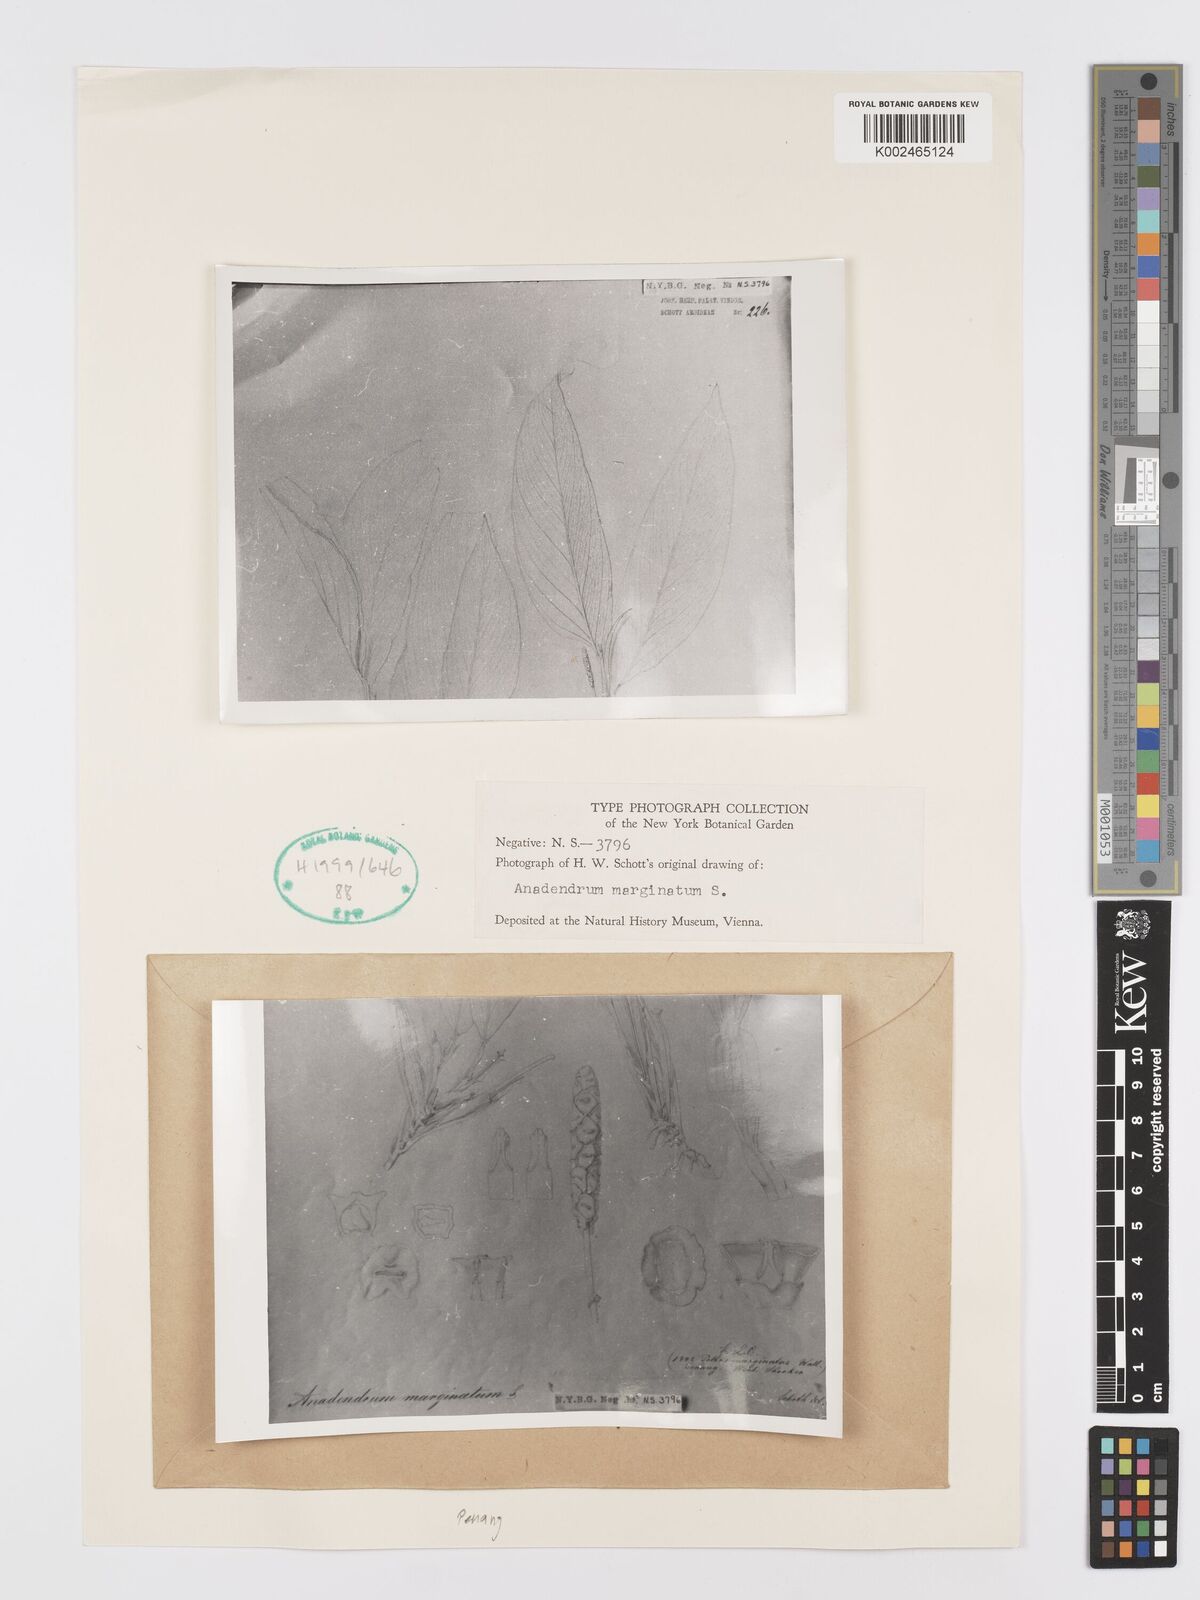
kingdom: Plantae
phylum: Tracheophyta
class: Liliopsida
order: Alismatales
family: Araceae
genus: Anadendrum
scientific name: Anadendrum marginatum
